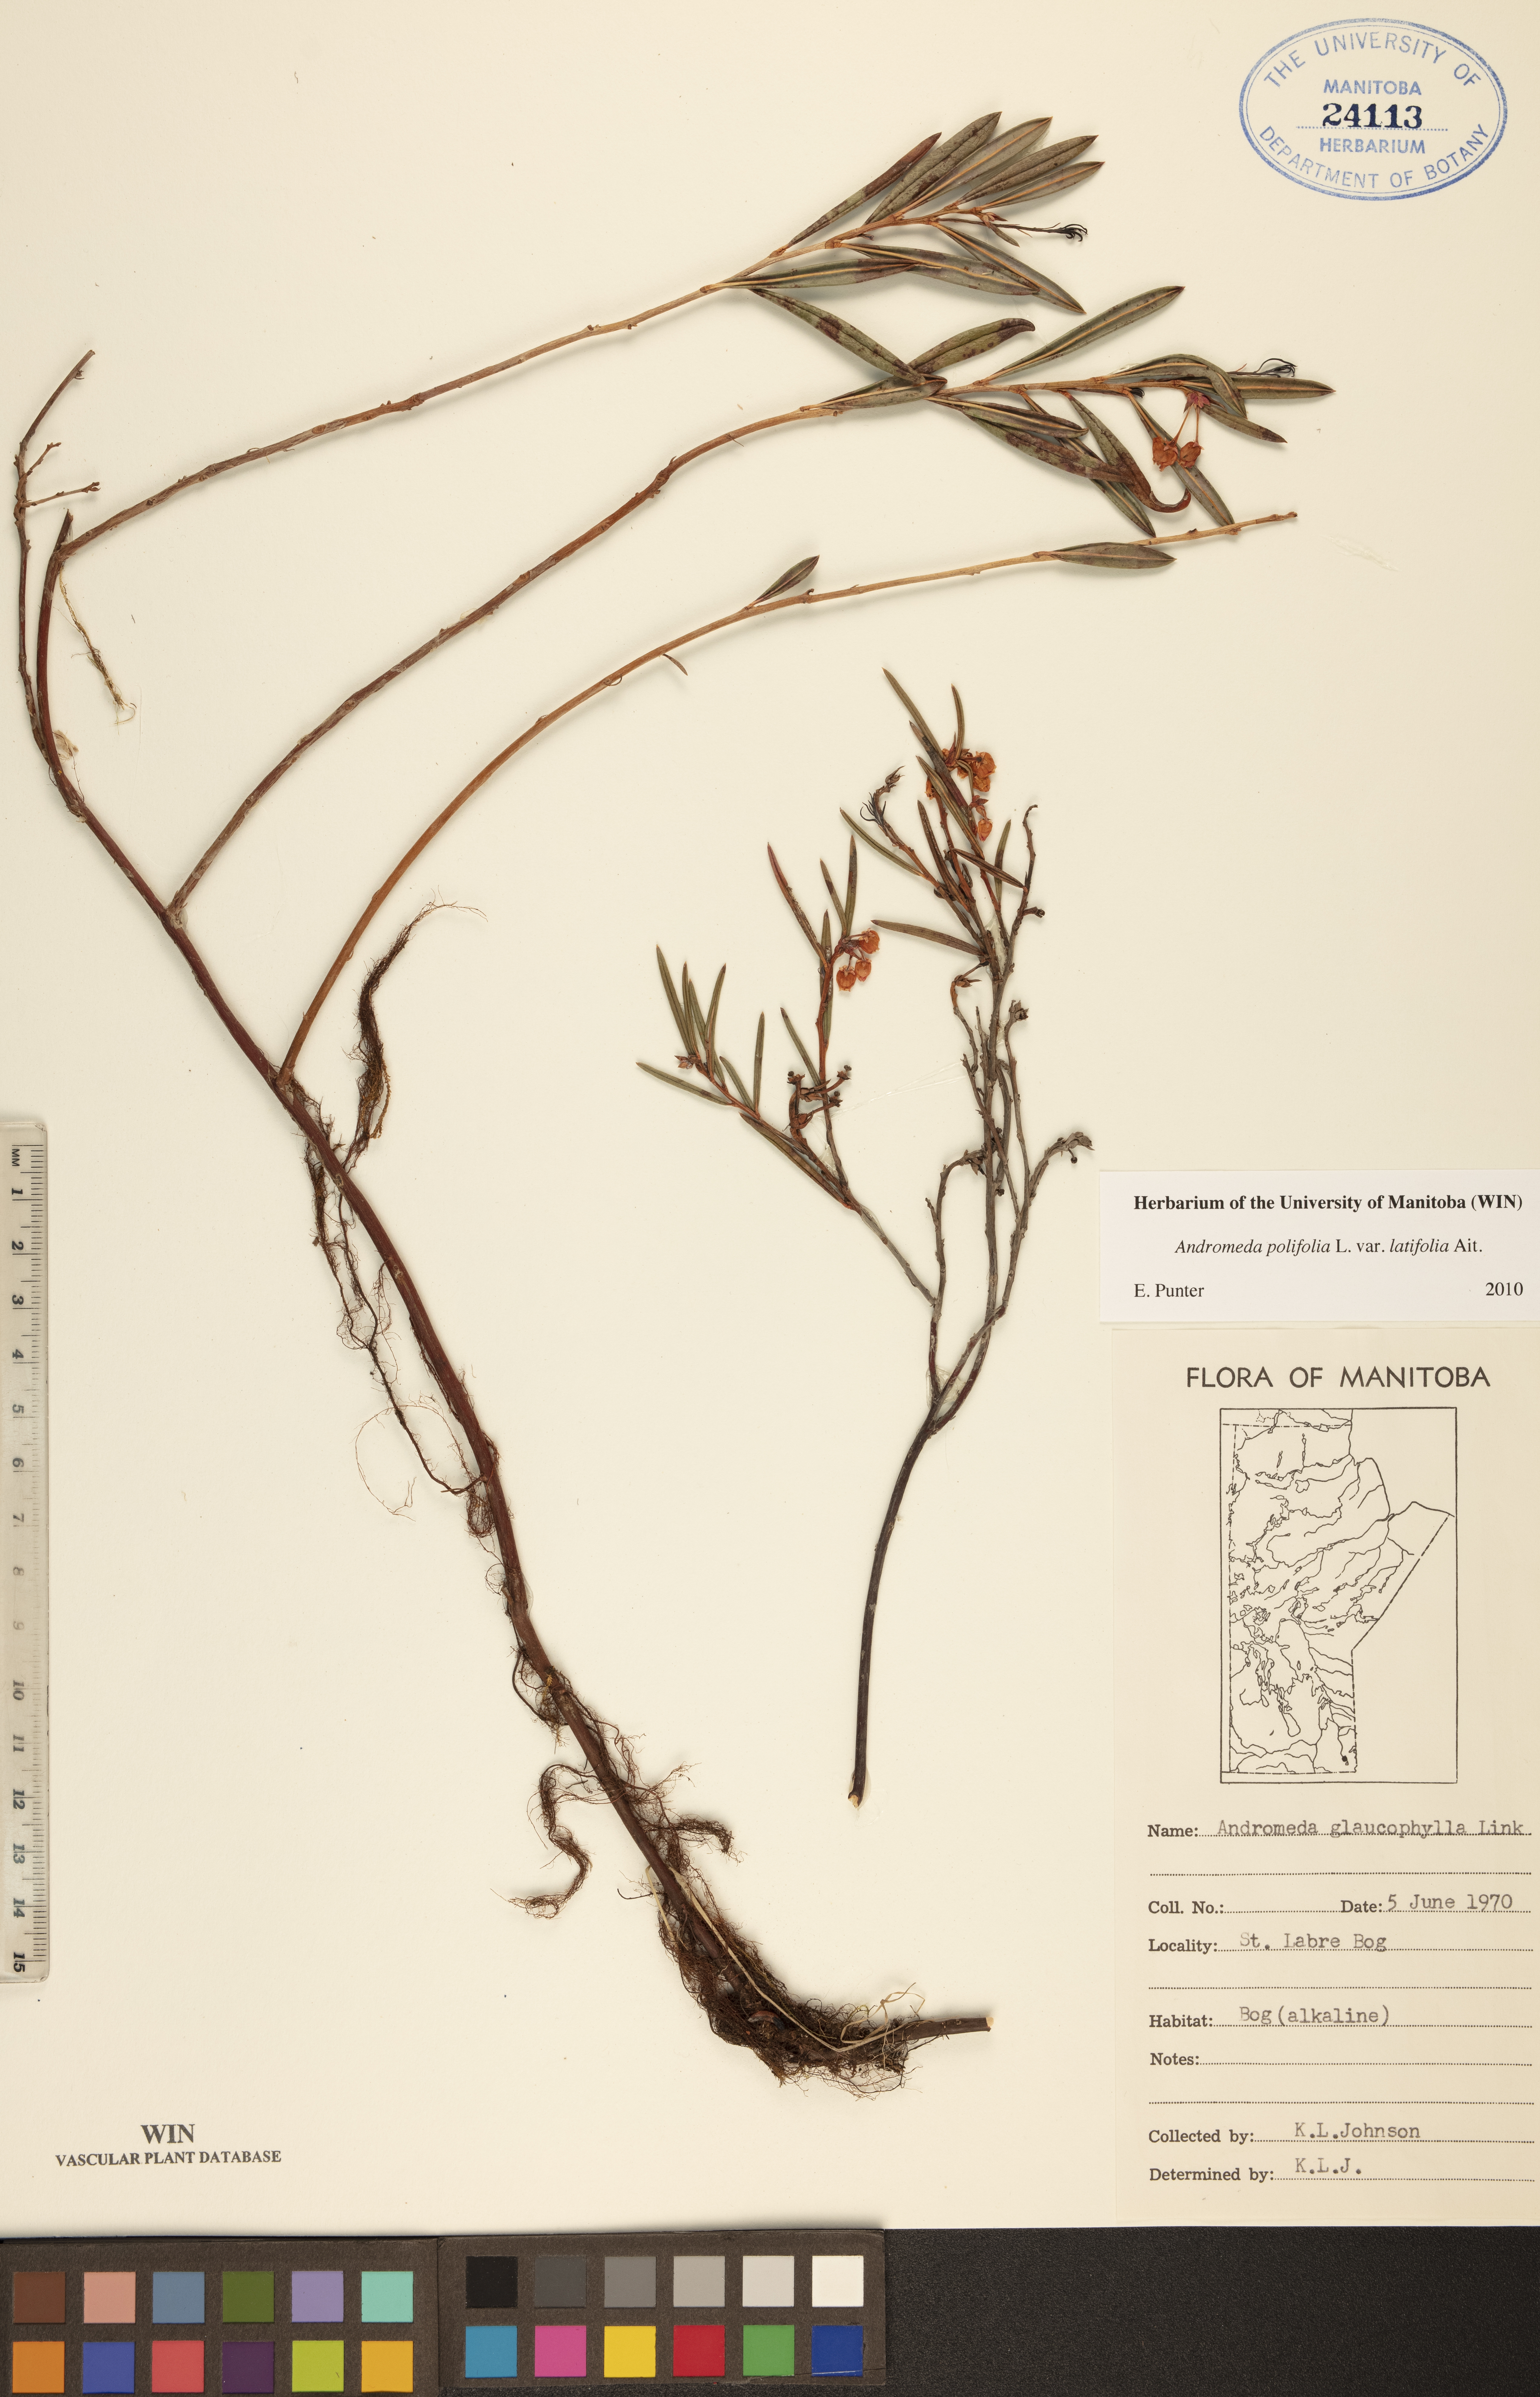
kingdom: Plantae
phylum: Tracheophyta
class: Magnoliopsida
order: Ericales
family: Ericaceae
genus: Andromeda
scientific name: Andromeda polifolia
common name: Bog-rosemary
